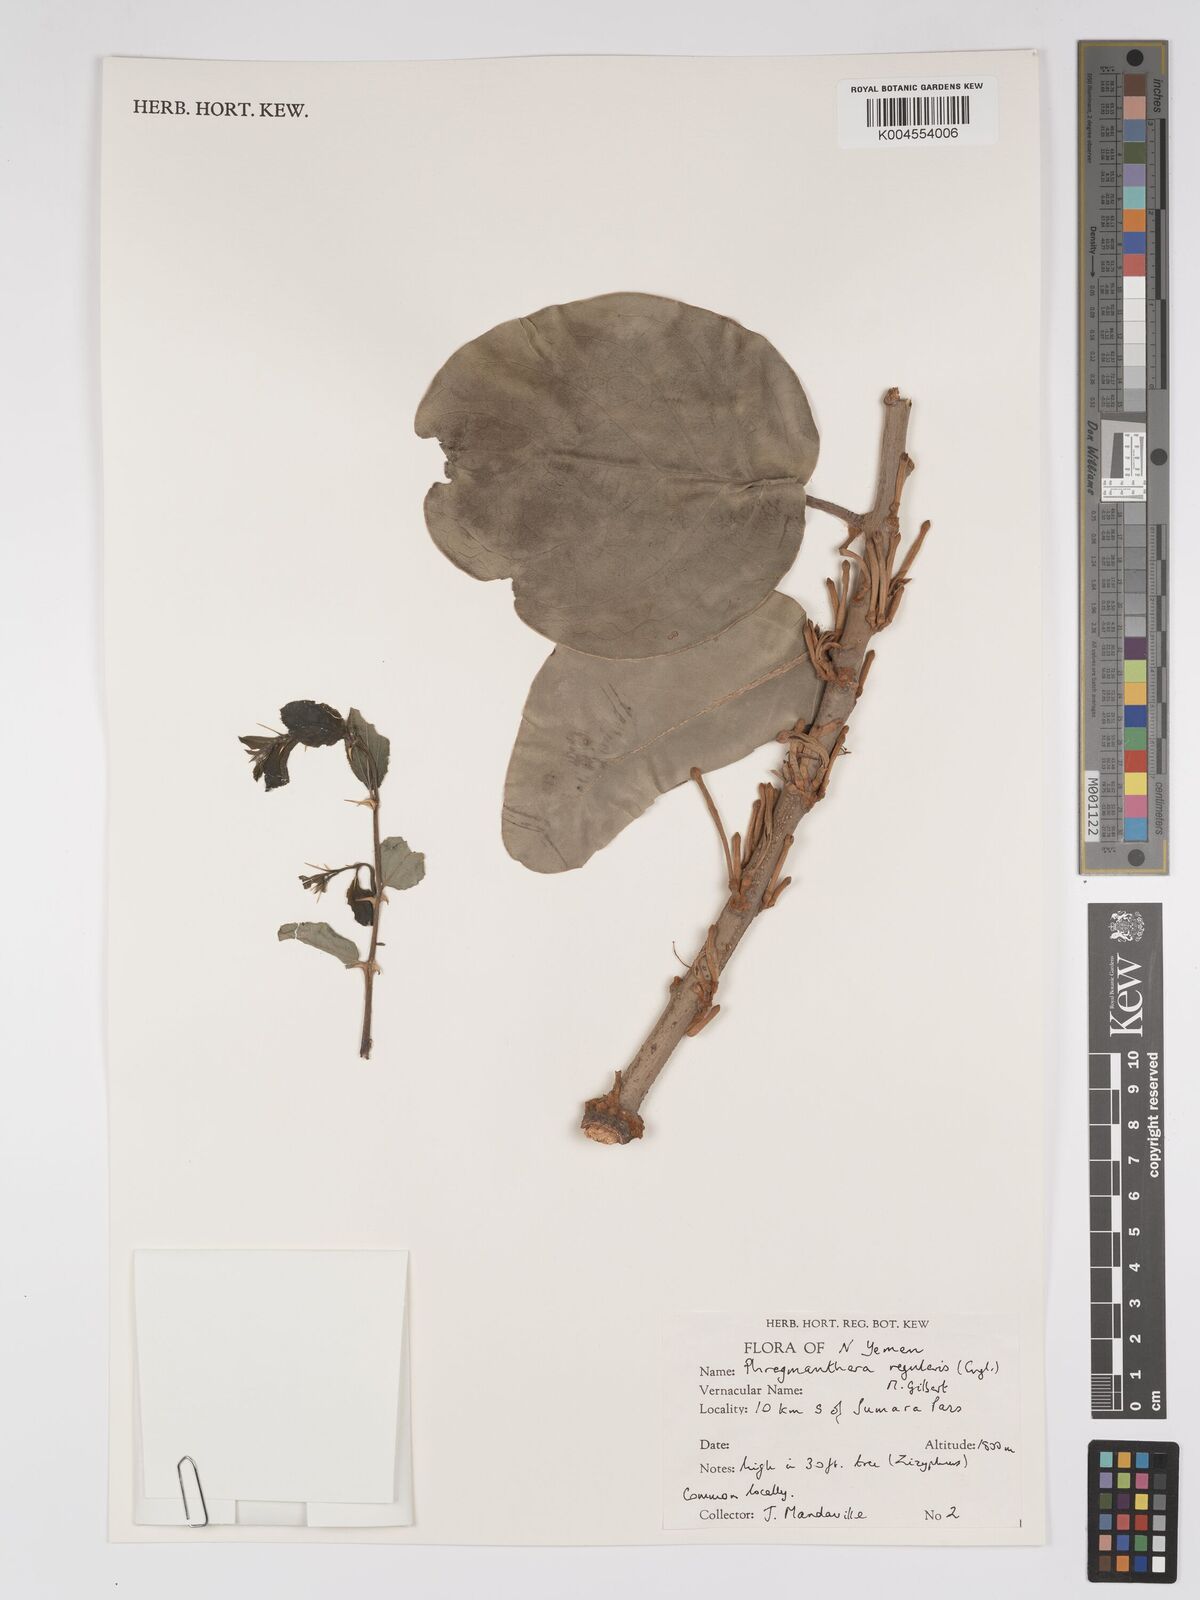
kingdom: Plantae
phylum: Tracheophyta
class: Magnoliopsida
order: Santalales
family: Loranthaceae
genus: Phragmanthera
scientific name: Phragmanthera regularis
